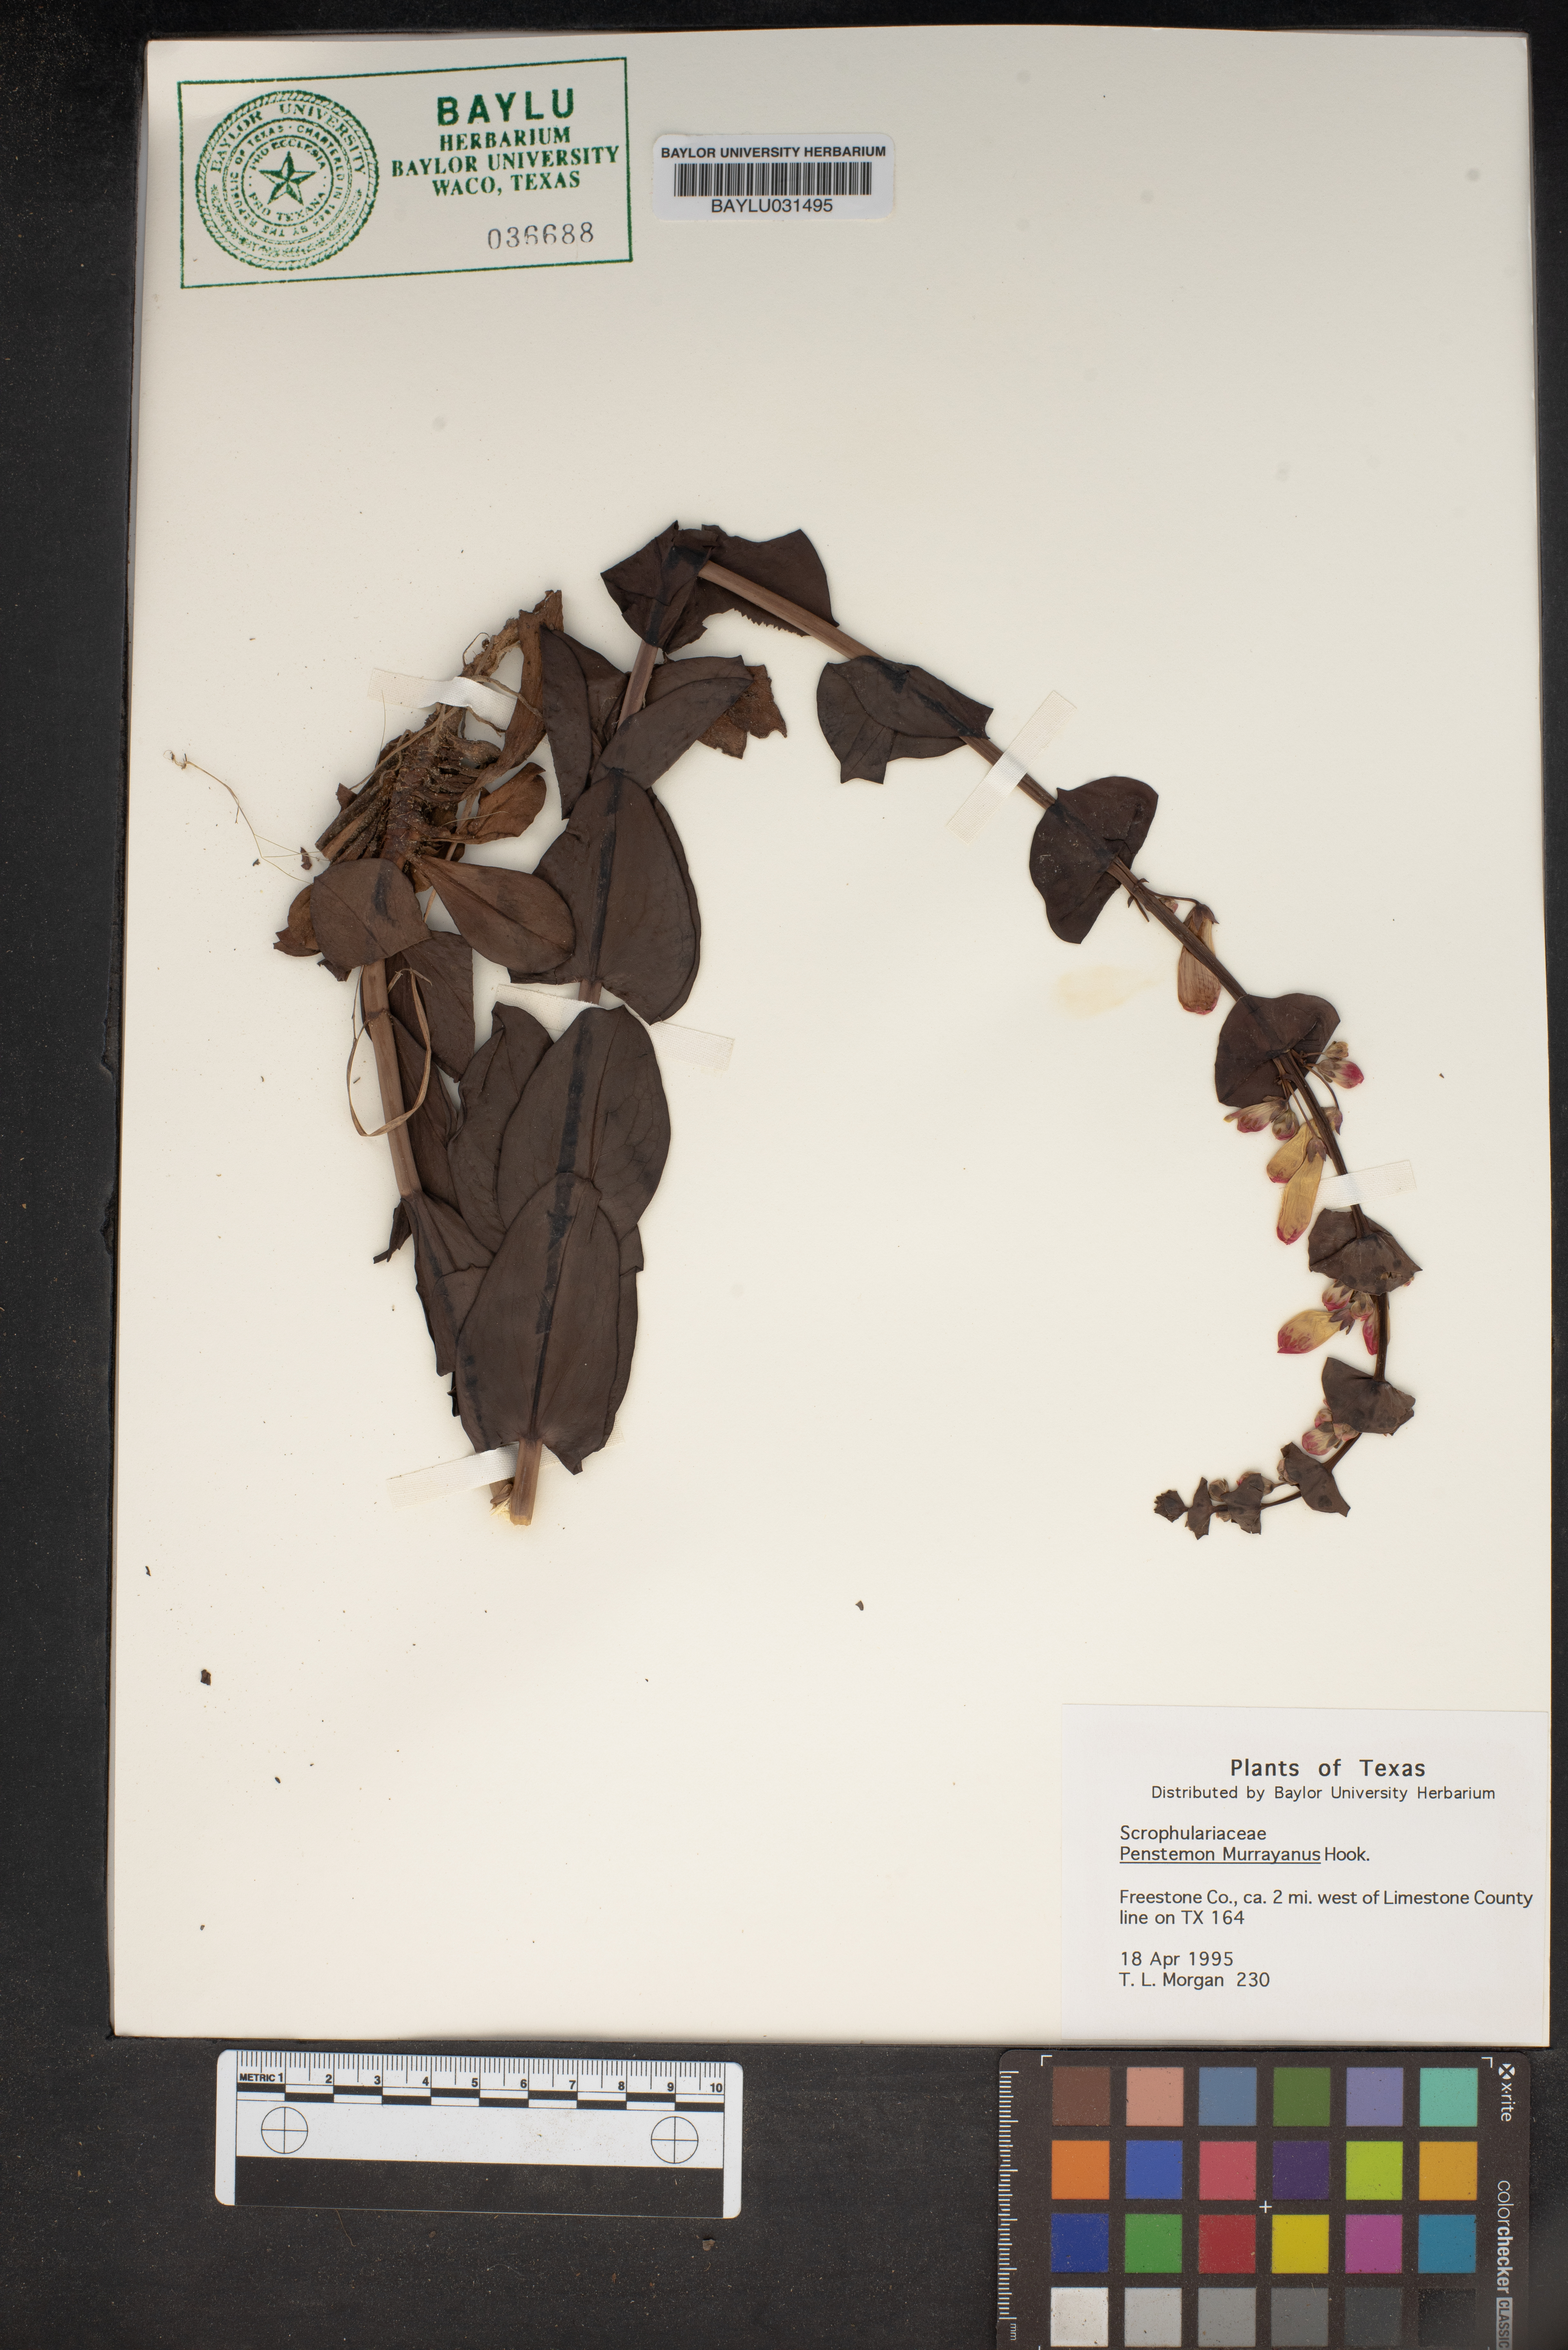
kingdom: Plantae
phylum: Tracheophyta
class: Magnoliopsida
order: Lamiales
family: Plantaginaceae
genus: Penstemon
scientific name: Penstemon murrayanus
